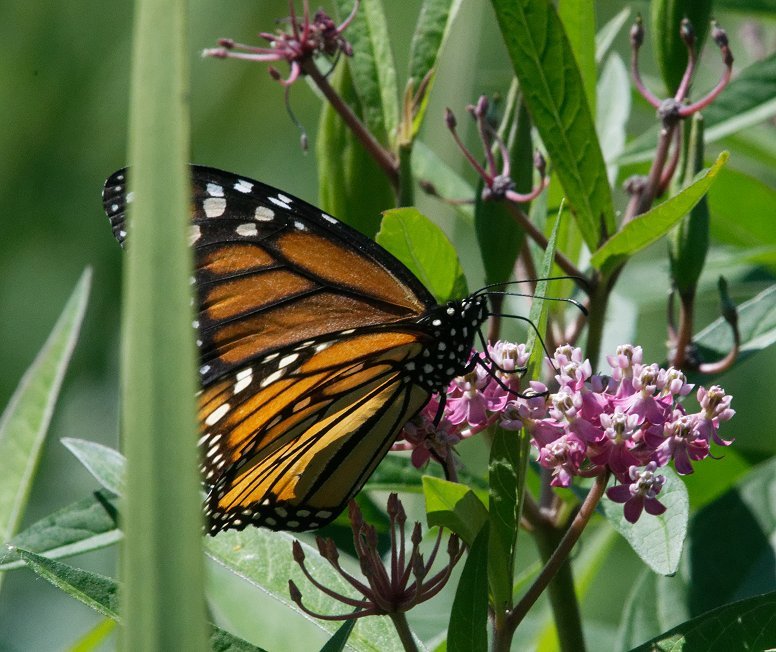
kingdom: Animalia
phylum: Arthropoda
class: Insecta
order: Lepidoptera
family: Nymphalidae
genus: Danaus
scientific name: Danaus plexippus
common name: Monarch
